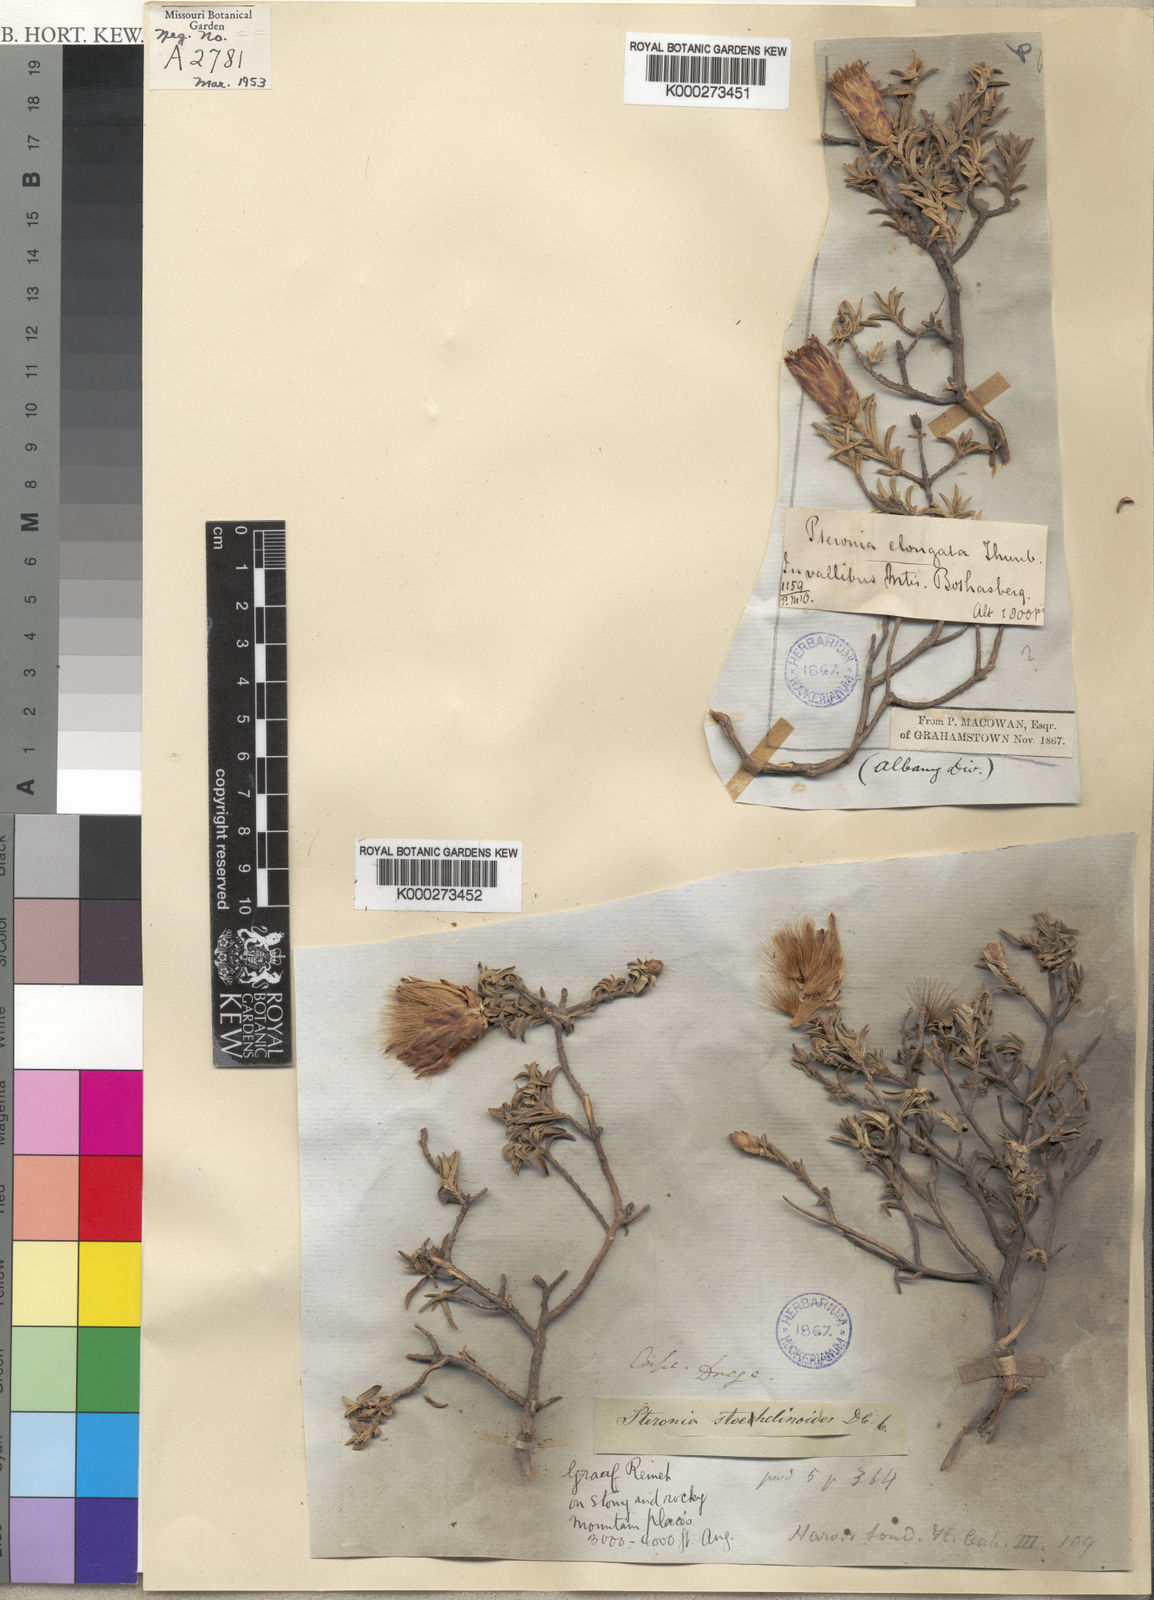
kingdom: Plantae
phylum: Tracheophyta
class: Magnoliopsida
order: Asterales
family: Asteraceae
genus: Pteronia
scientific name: Pteronia stoehelinoides
